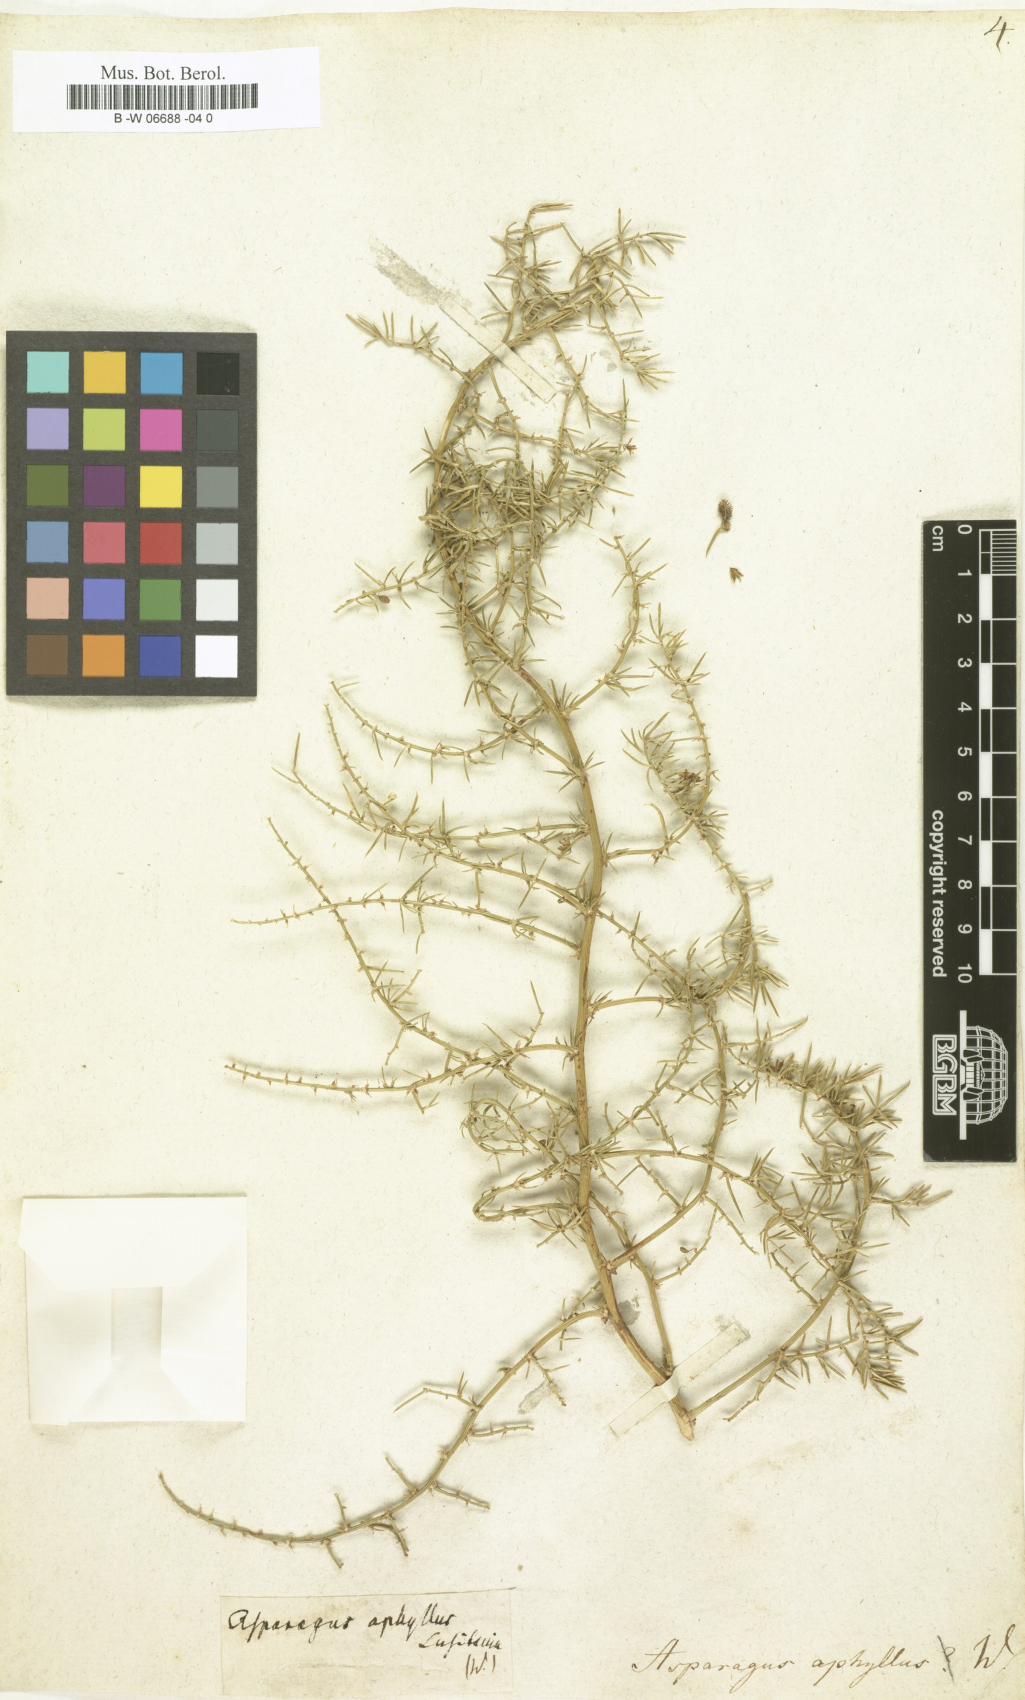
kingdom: Plantae
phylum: Tracheophyta
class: Liliopsida
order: Asparagales
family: Asparagaceae
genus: Asparagus
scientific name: Asparagus aphyllus
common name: Mediterranean asparagus
